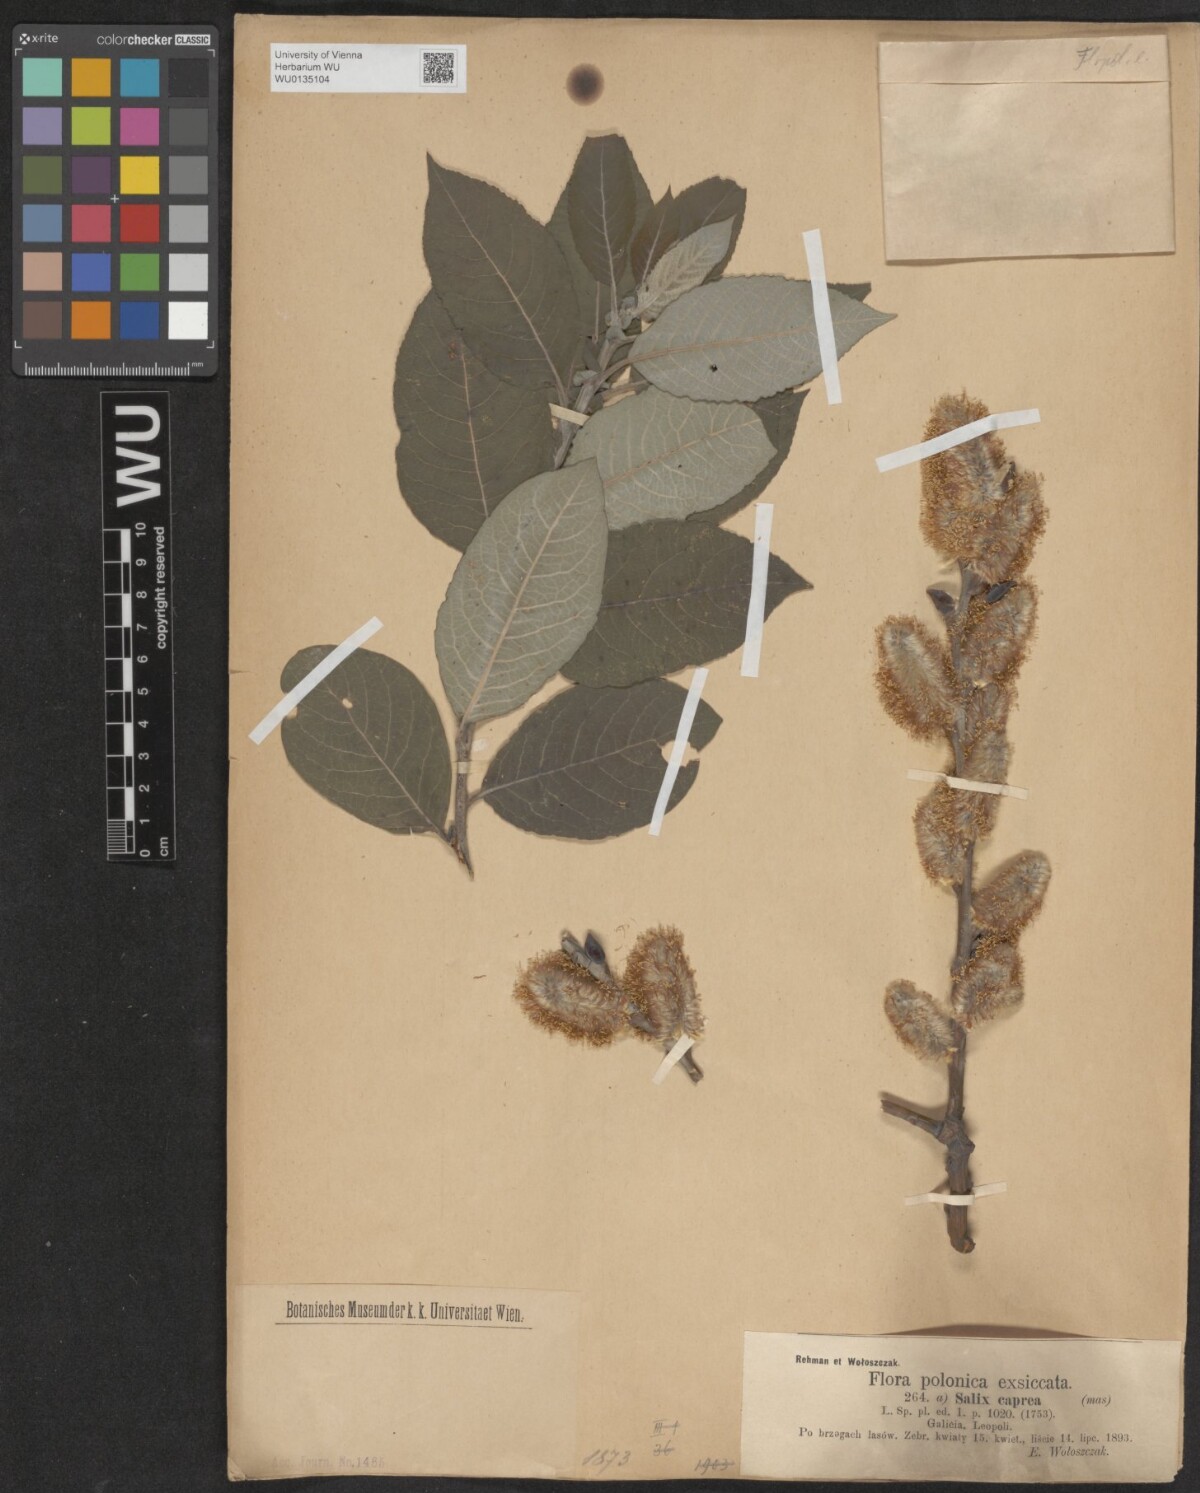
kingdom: Plantae
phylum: Tracheophyta
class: Magnoliopsida
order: Malpighiales
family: Salicaceae
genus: Salix
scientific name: Salix caprea
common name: Goat willow
